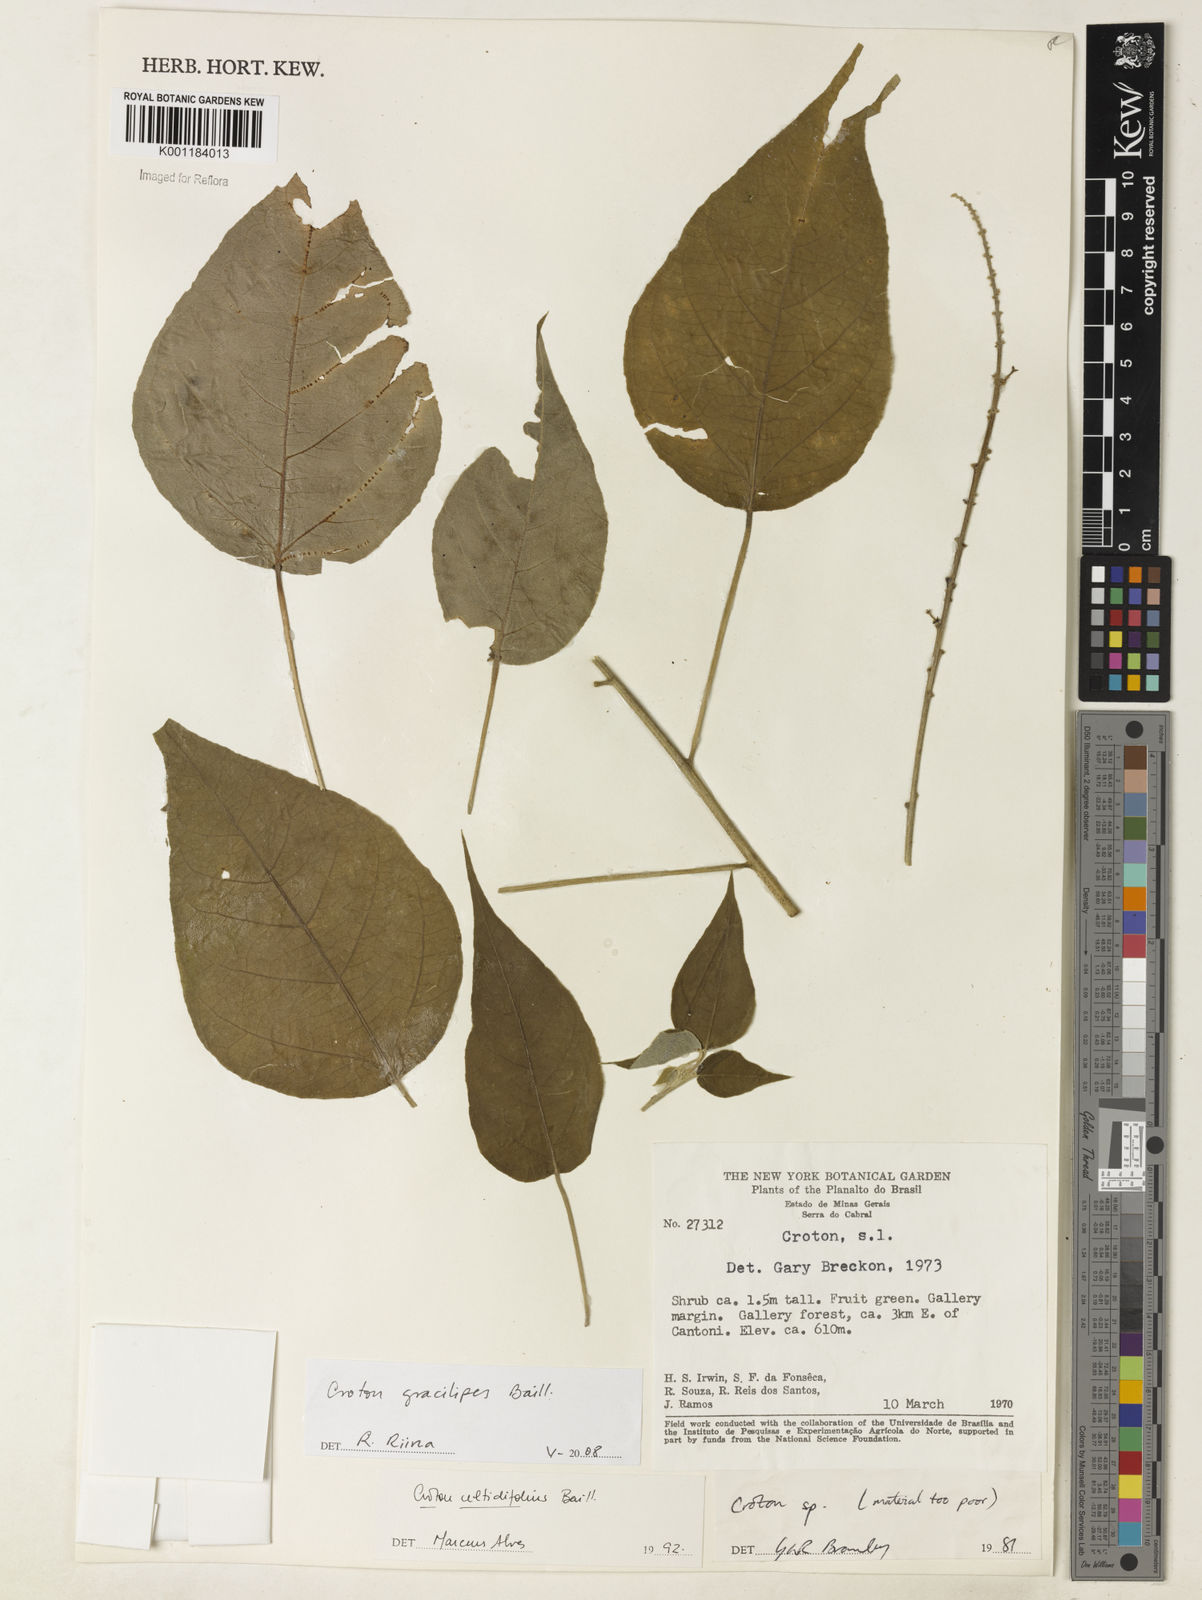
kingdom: Plantae
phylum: Tracheophyta
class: Magnoliopsida
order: Malpighiales
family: Euphorbiaceae
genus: Croton
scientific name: Croton gracilipes
